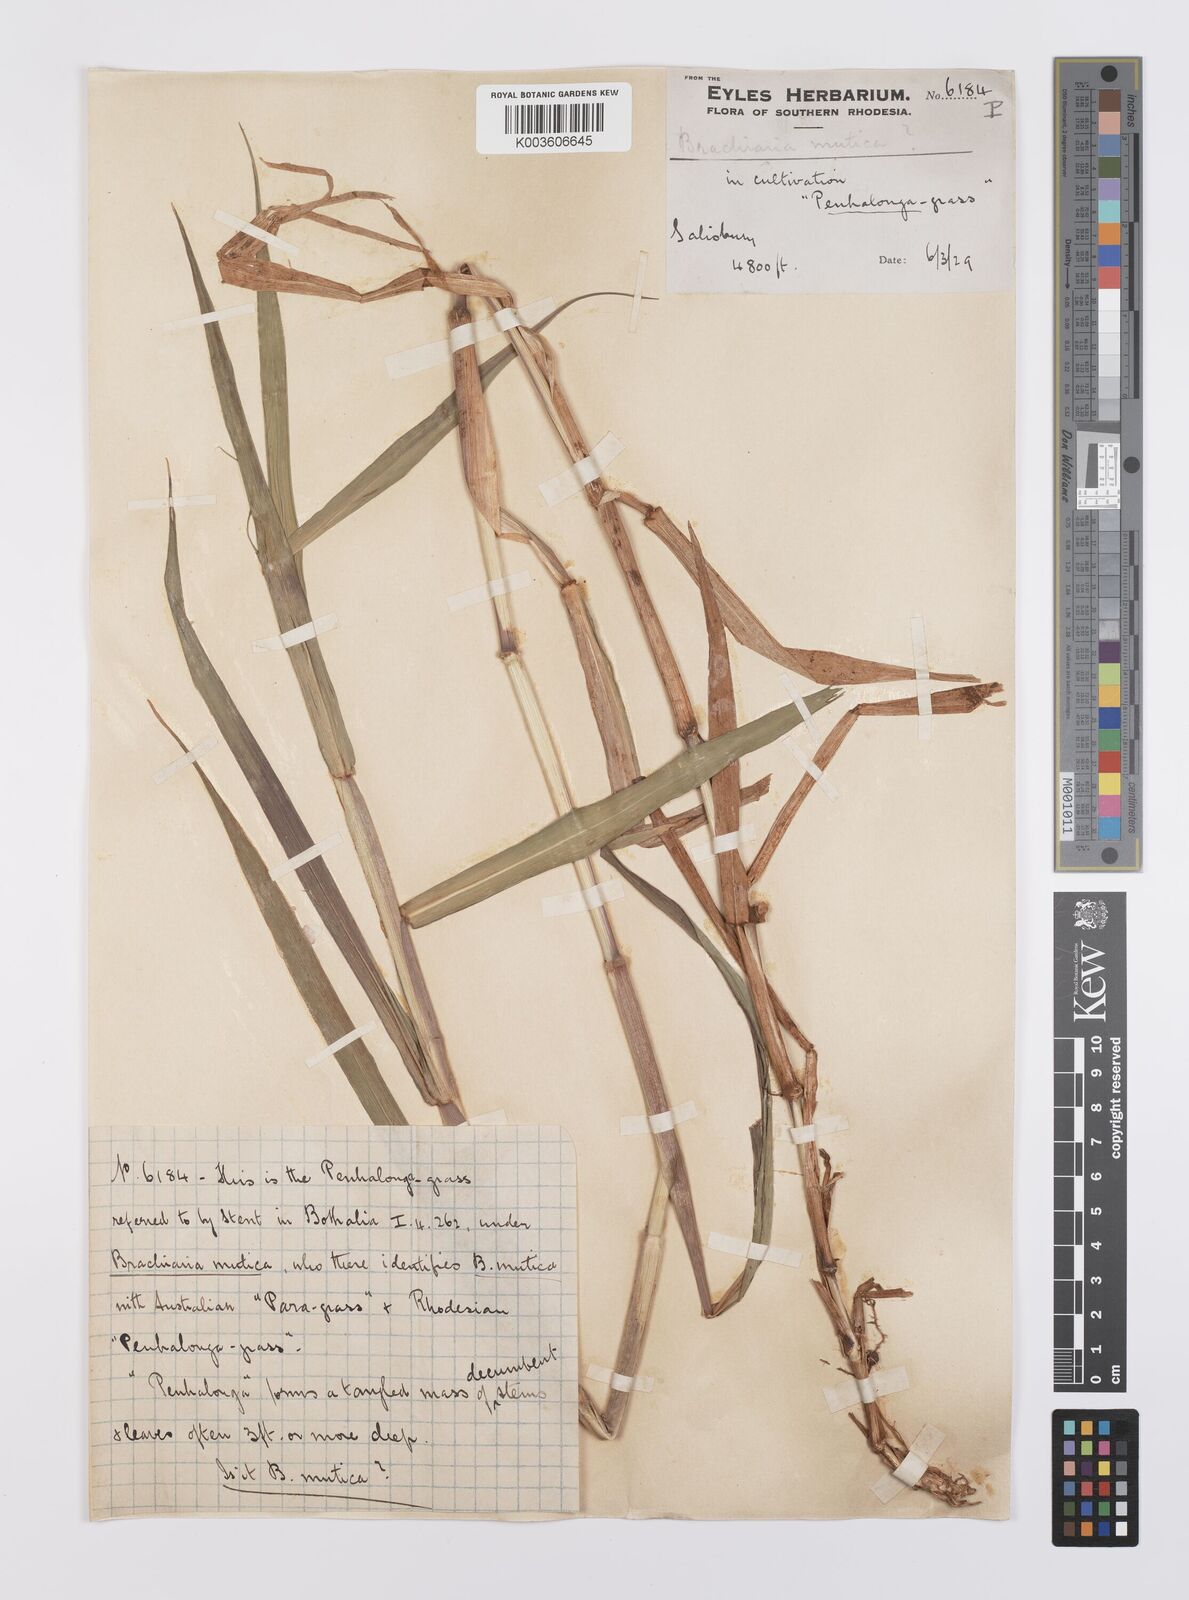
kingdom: Plantae
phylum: Tracheophyta
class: Liliopsida
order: Poales
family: Poaceae
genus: Urochloa
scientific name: Urochloa mutica
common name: Para grass
